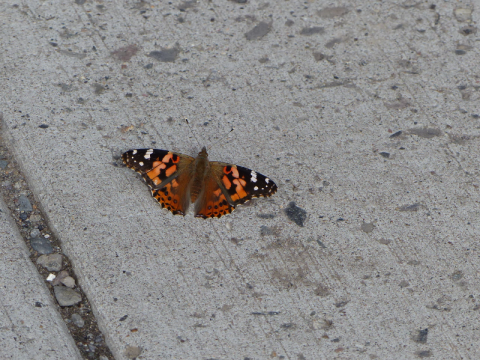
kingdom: Animalia
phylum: Arthropoda
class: Insecta
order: Lepidoptera
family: Nymphalidae
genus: Vanessa
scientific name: Vanessa cardui
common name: Painted Lady
